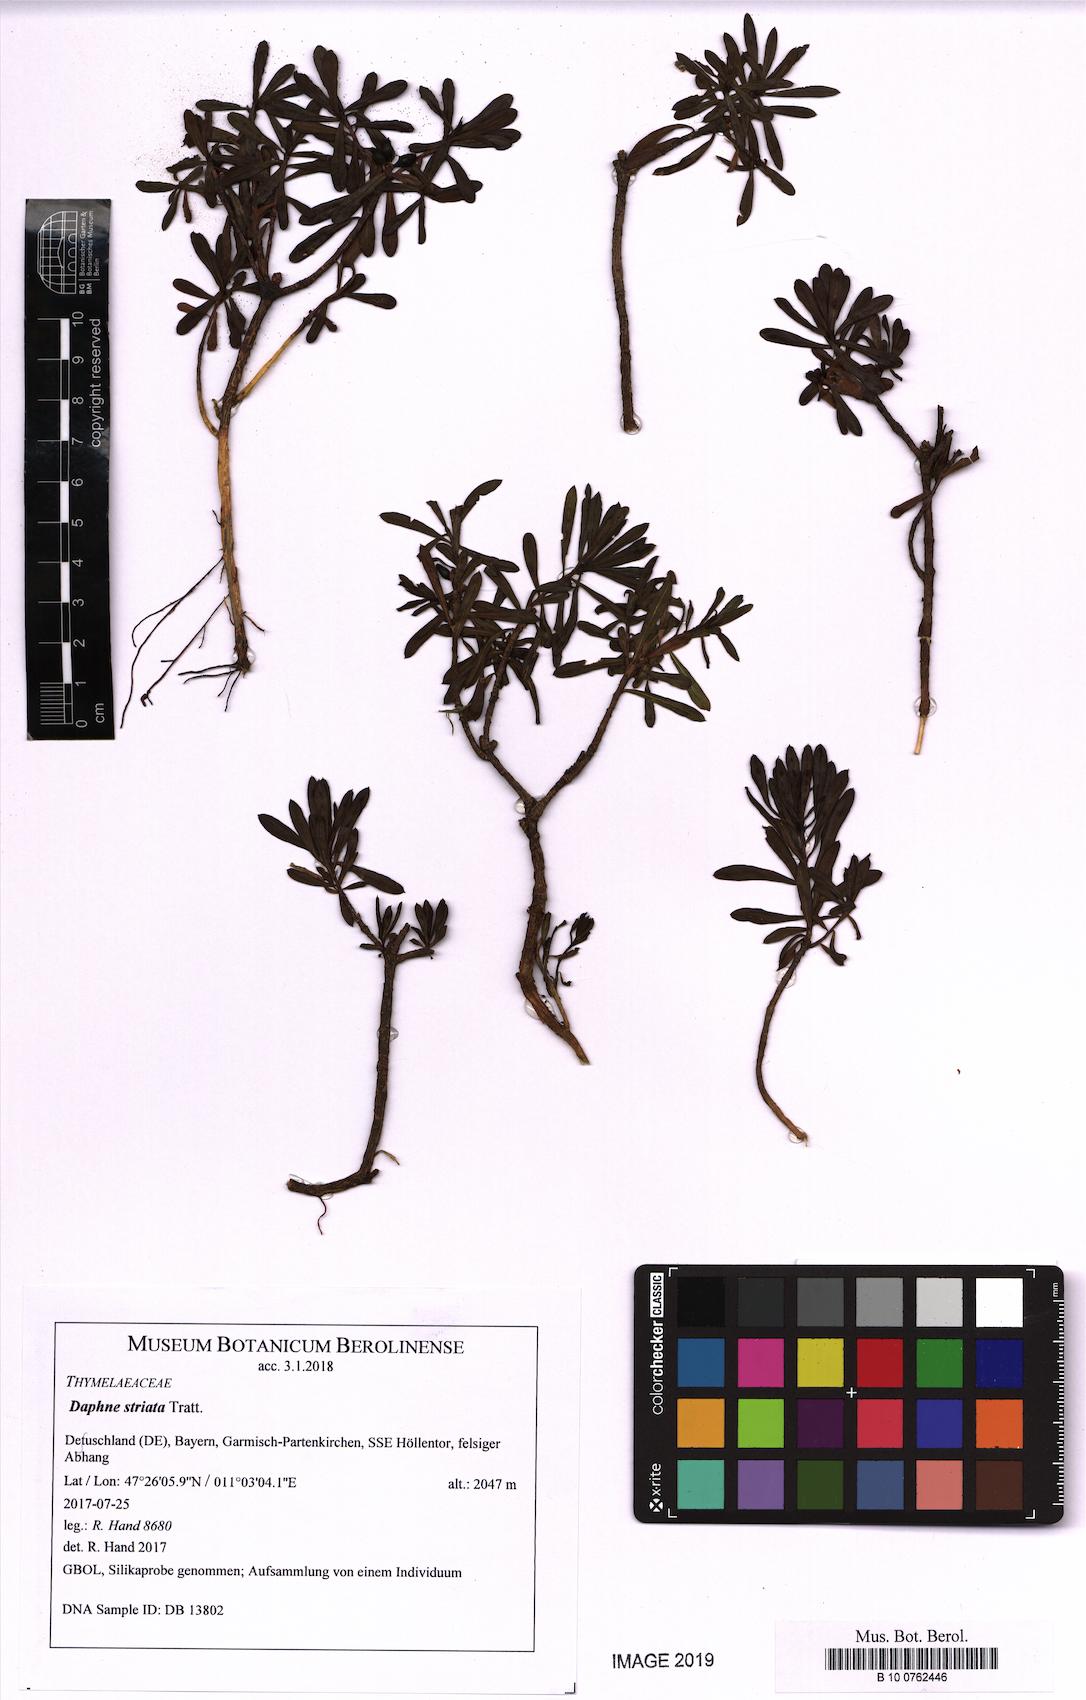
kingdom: Plantae
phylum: Tracheophyta
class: Magnoliopsida
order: Malvales
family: Thymelaeaceae
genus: Daphne
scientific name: Daphne striata
